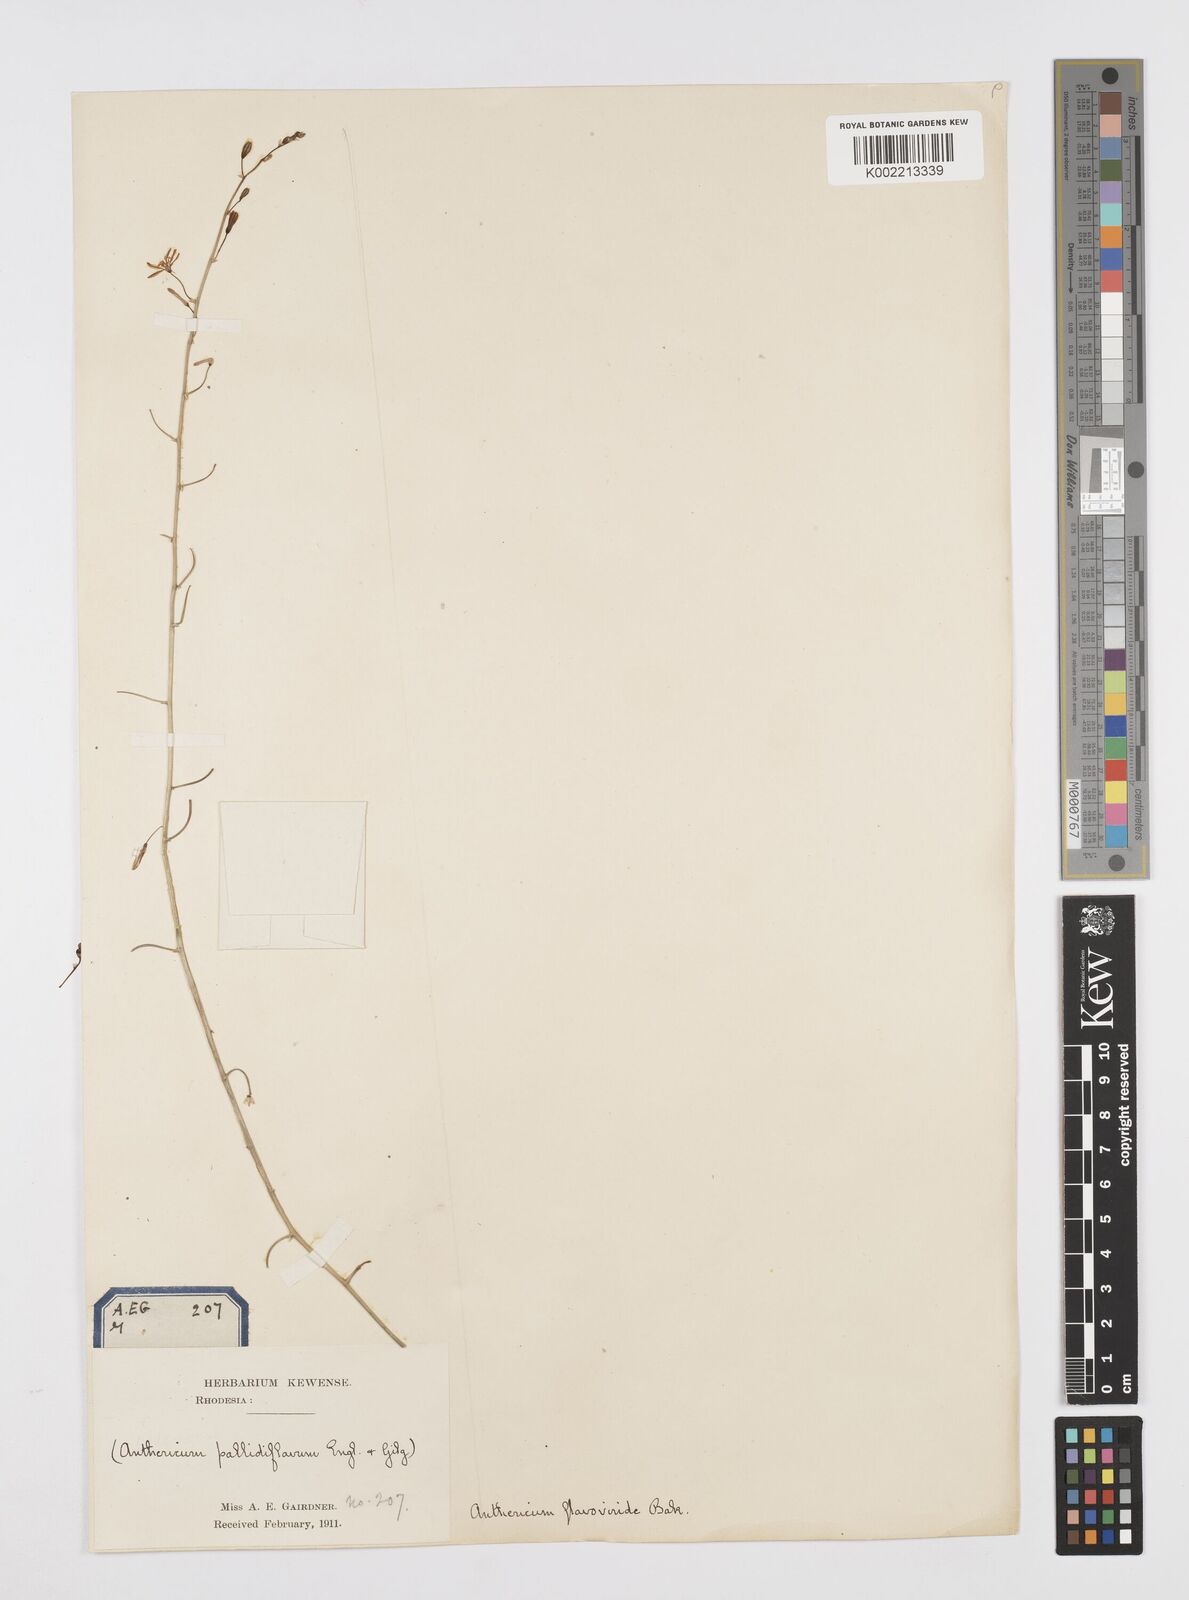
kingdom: Plantae
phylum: Tracheophyta
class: Liliopsida
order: Asparagales
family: Asphodelaceae
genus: Trachyandra
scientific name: Trachyandra arvensis
